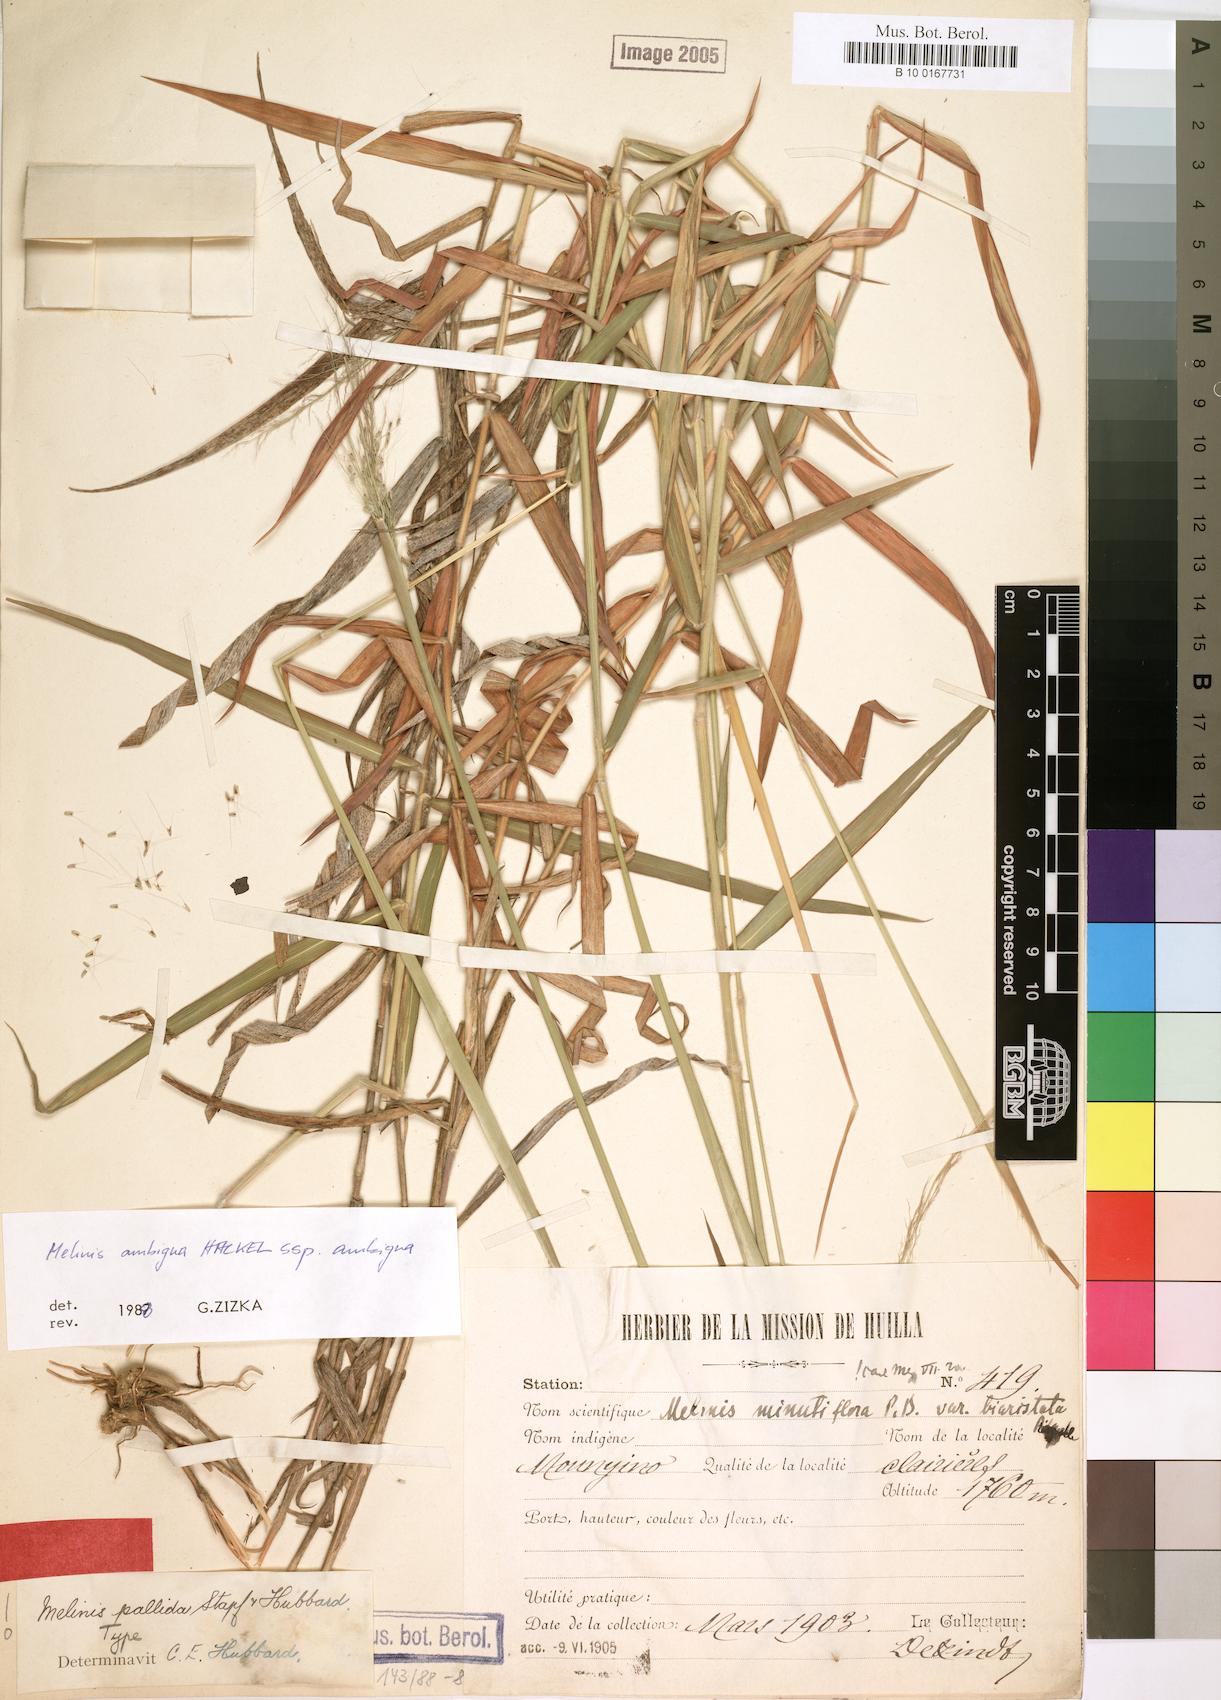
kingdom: Plantae
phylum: Tracheophyta
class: Liliopsida
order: Poales
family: Poaceae
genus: Melinis
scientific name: Melinis ambigua
